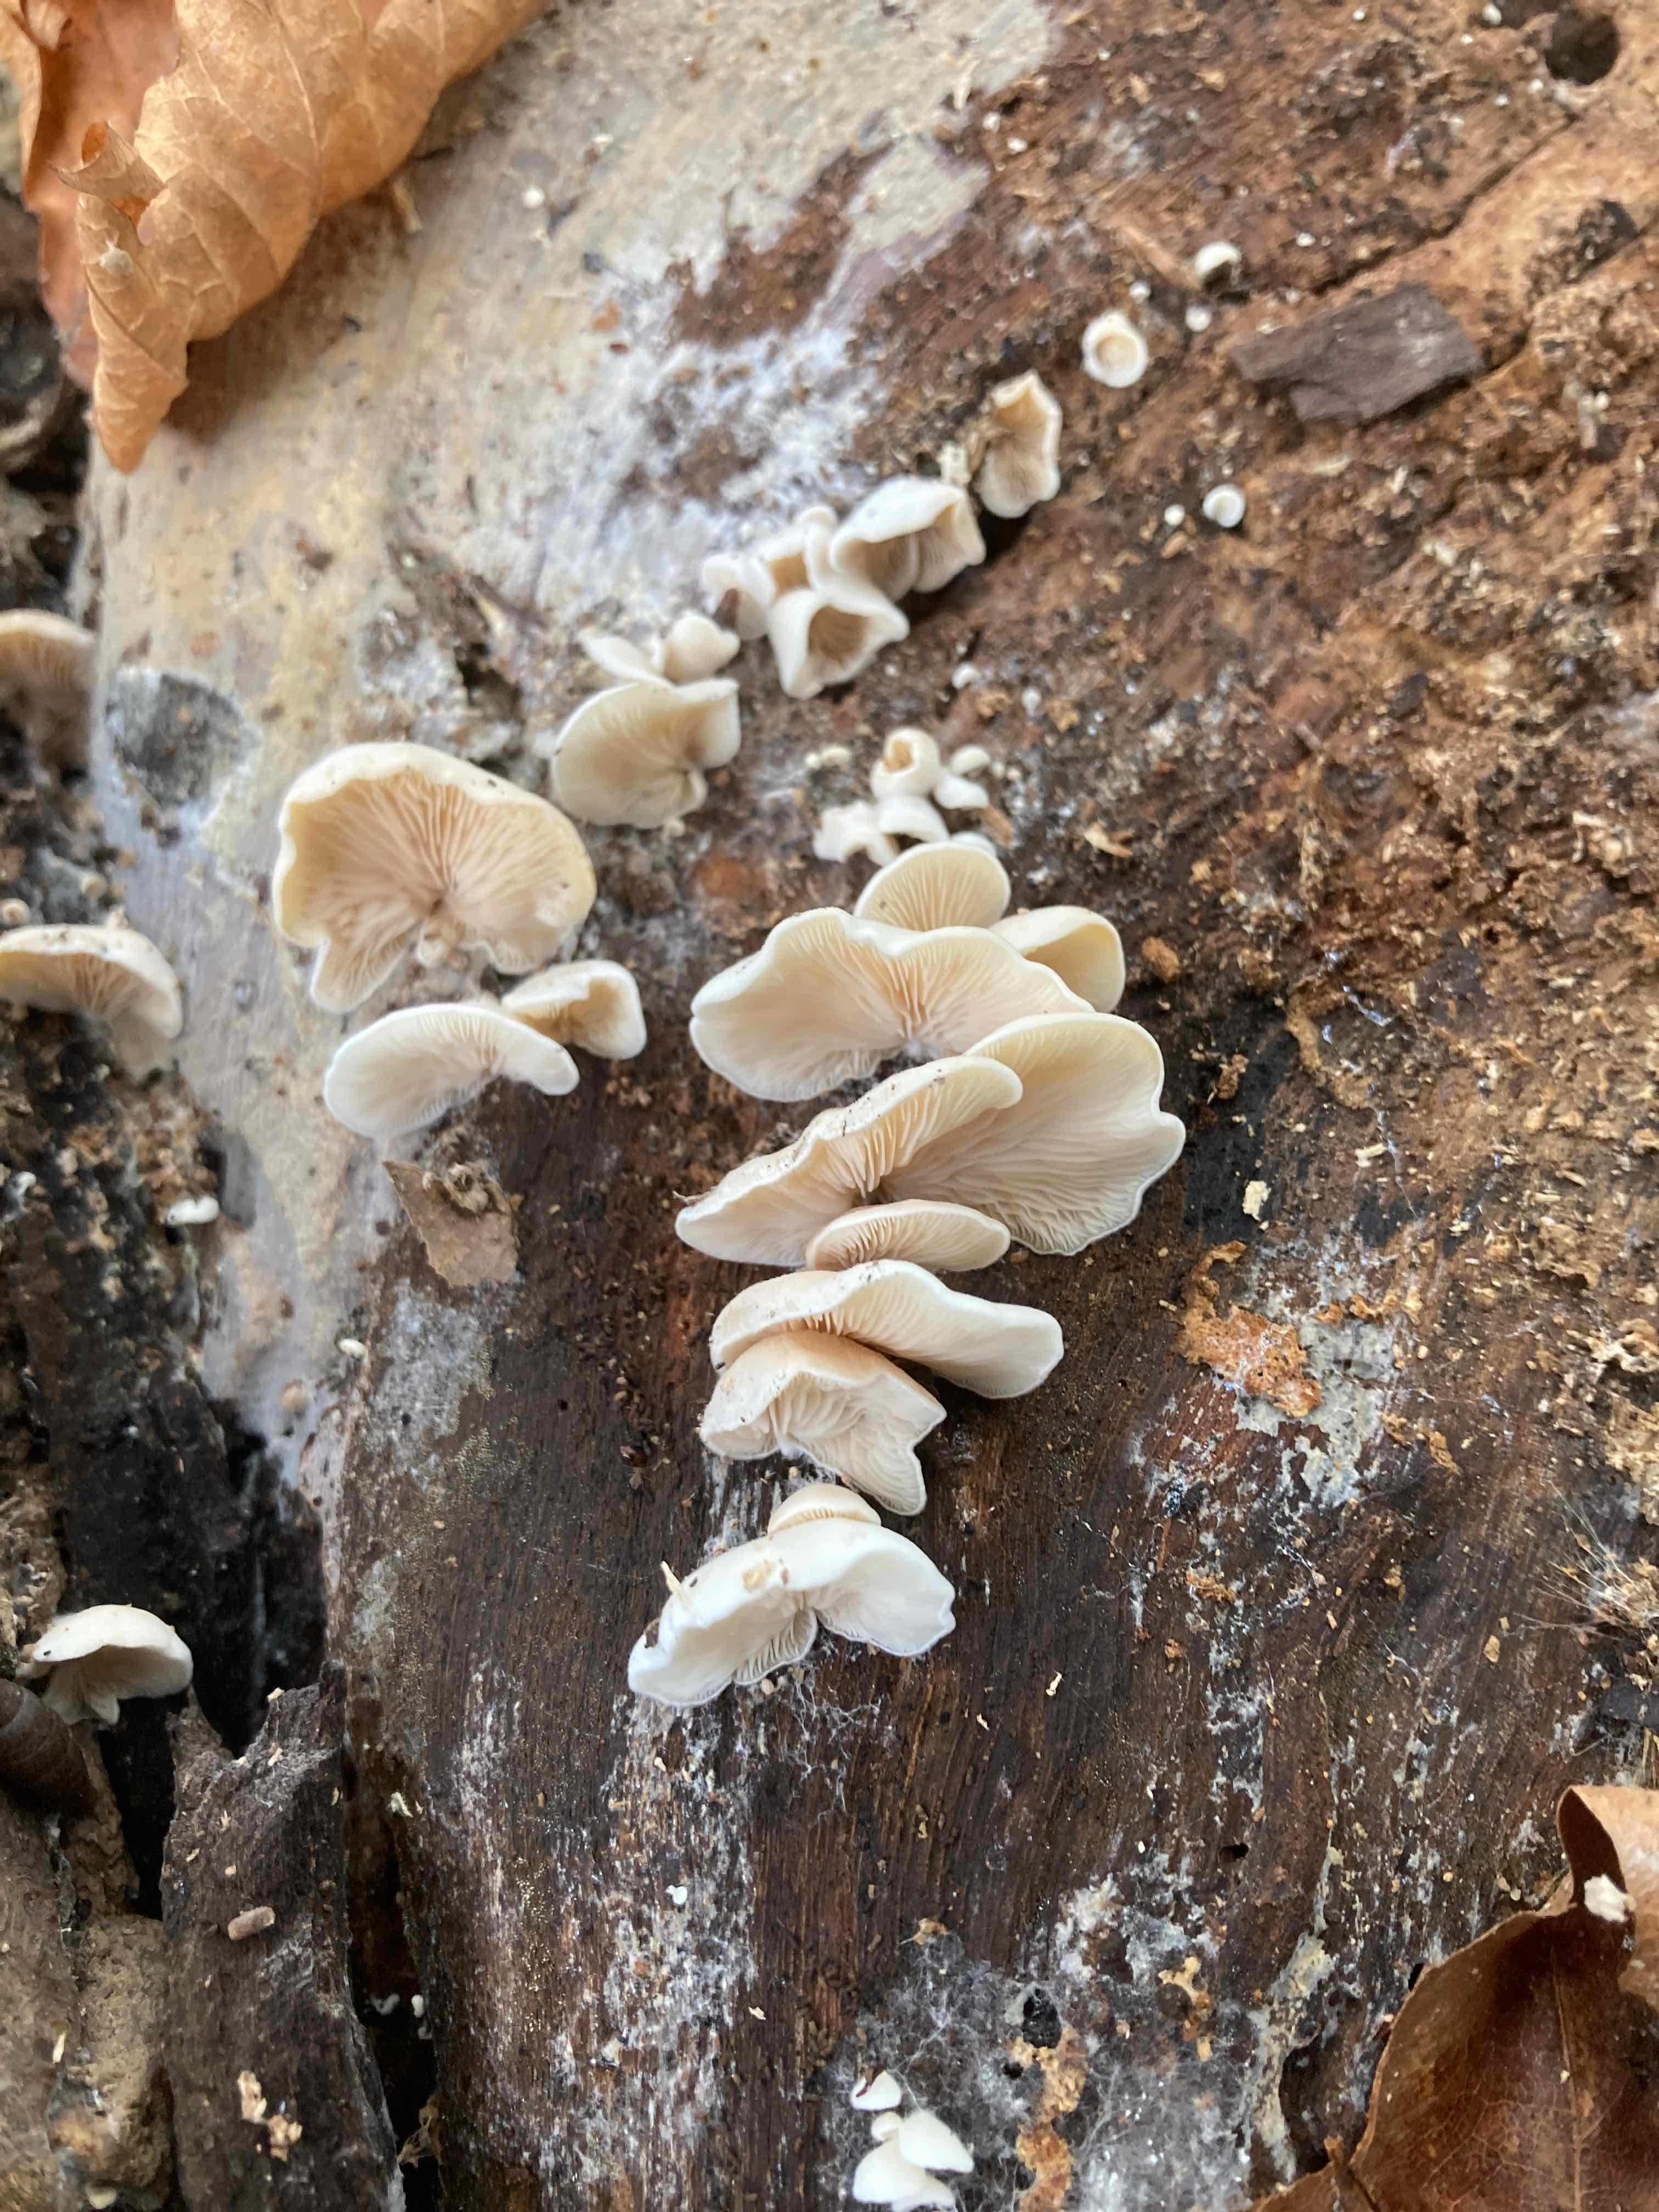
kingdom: Fungi
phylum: Basidiomycota
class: Agaricomycetes
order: Agaricales
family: Entolomataceae
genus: Clitopilus
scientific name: Clitopilus hobsonii
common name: Miller's oysterling
